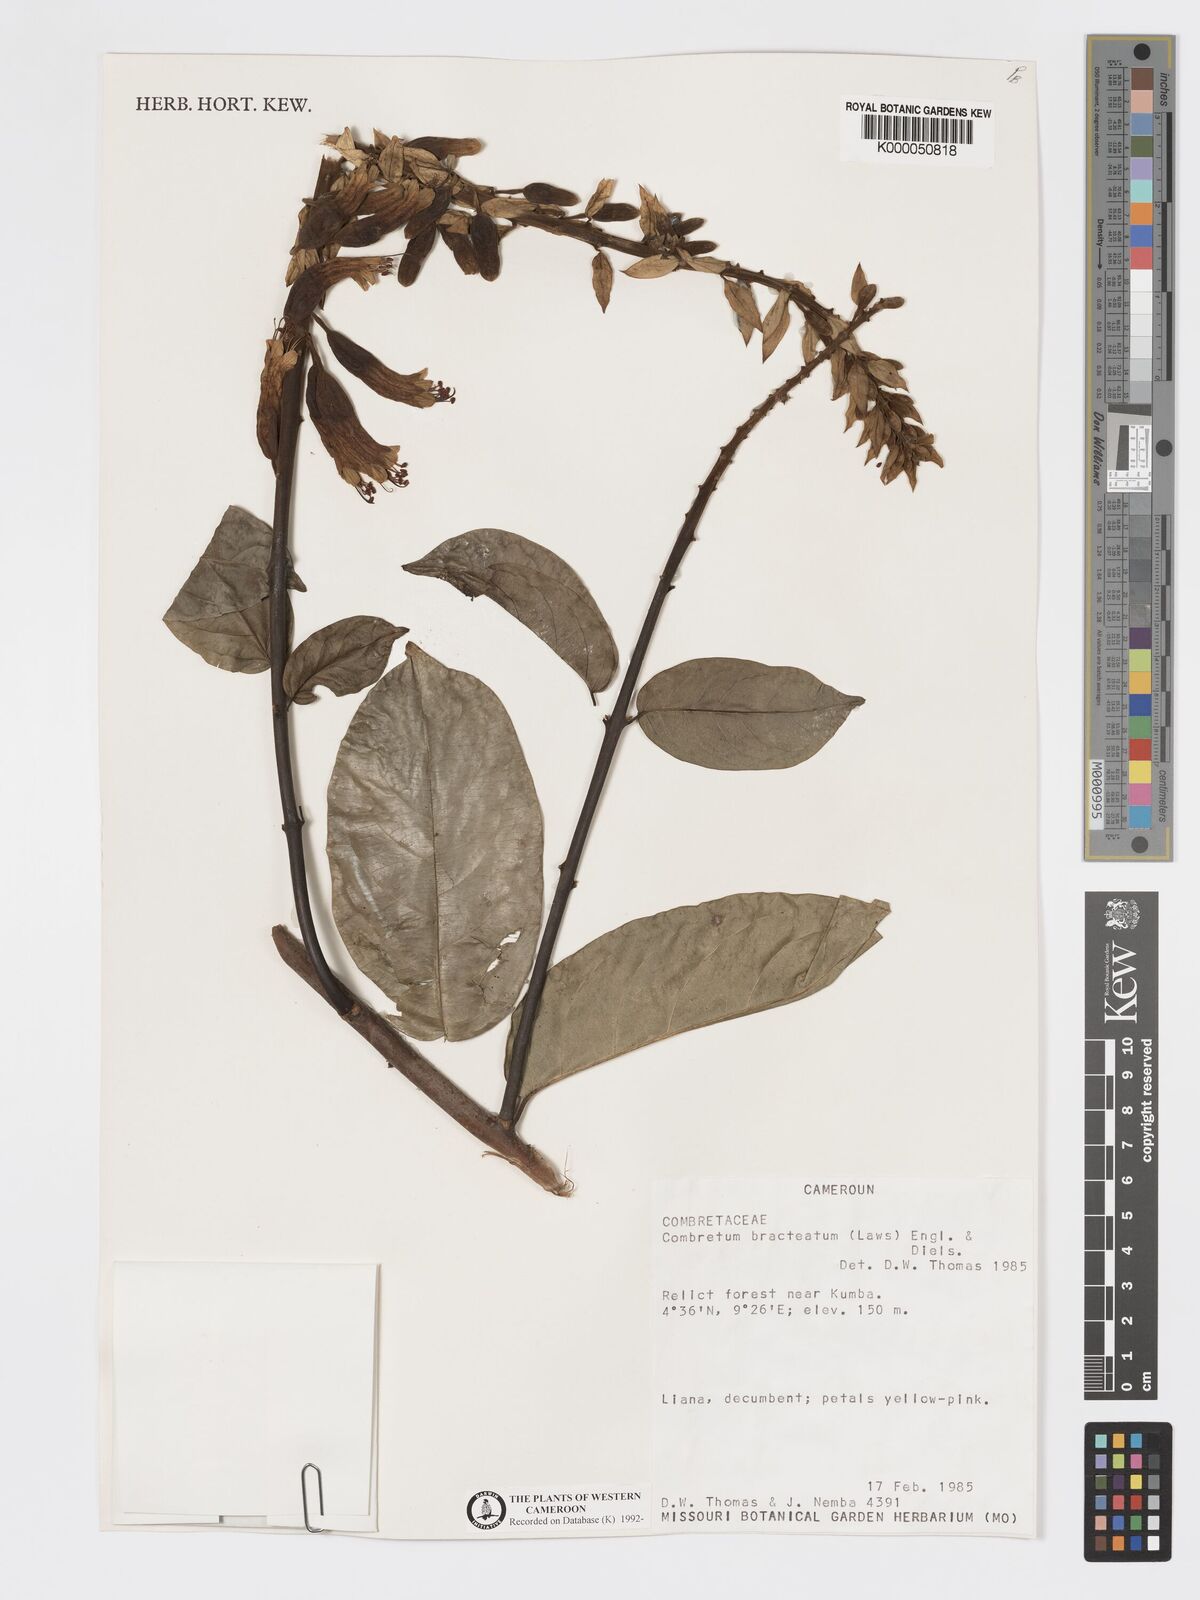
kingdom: Plantae
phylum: Tracheophyta
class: Magnoliopsida
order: Myrtales
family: Combretaceae
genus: Combretum
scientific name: Combretum bracteatum
